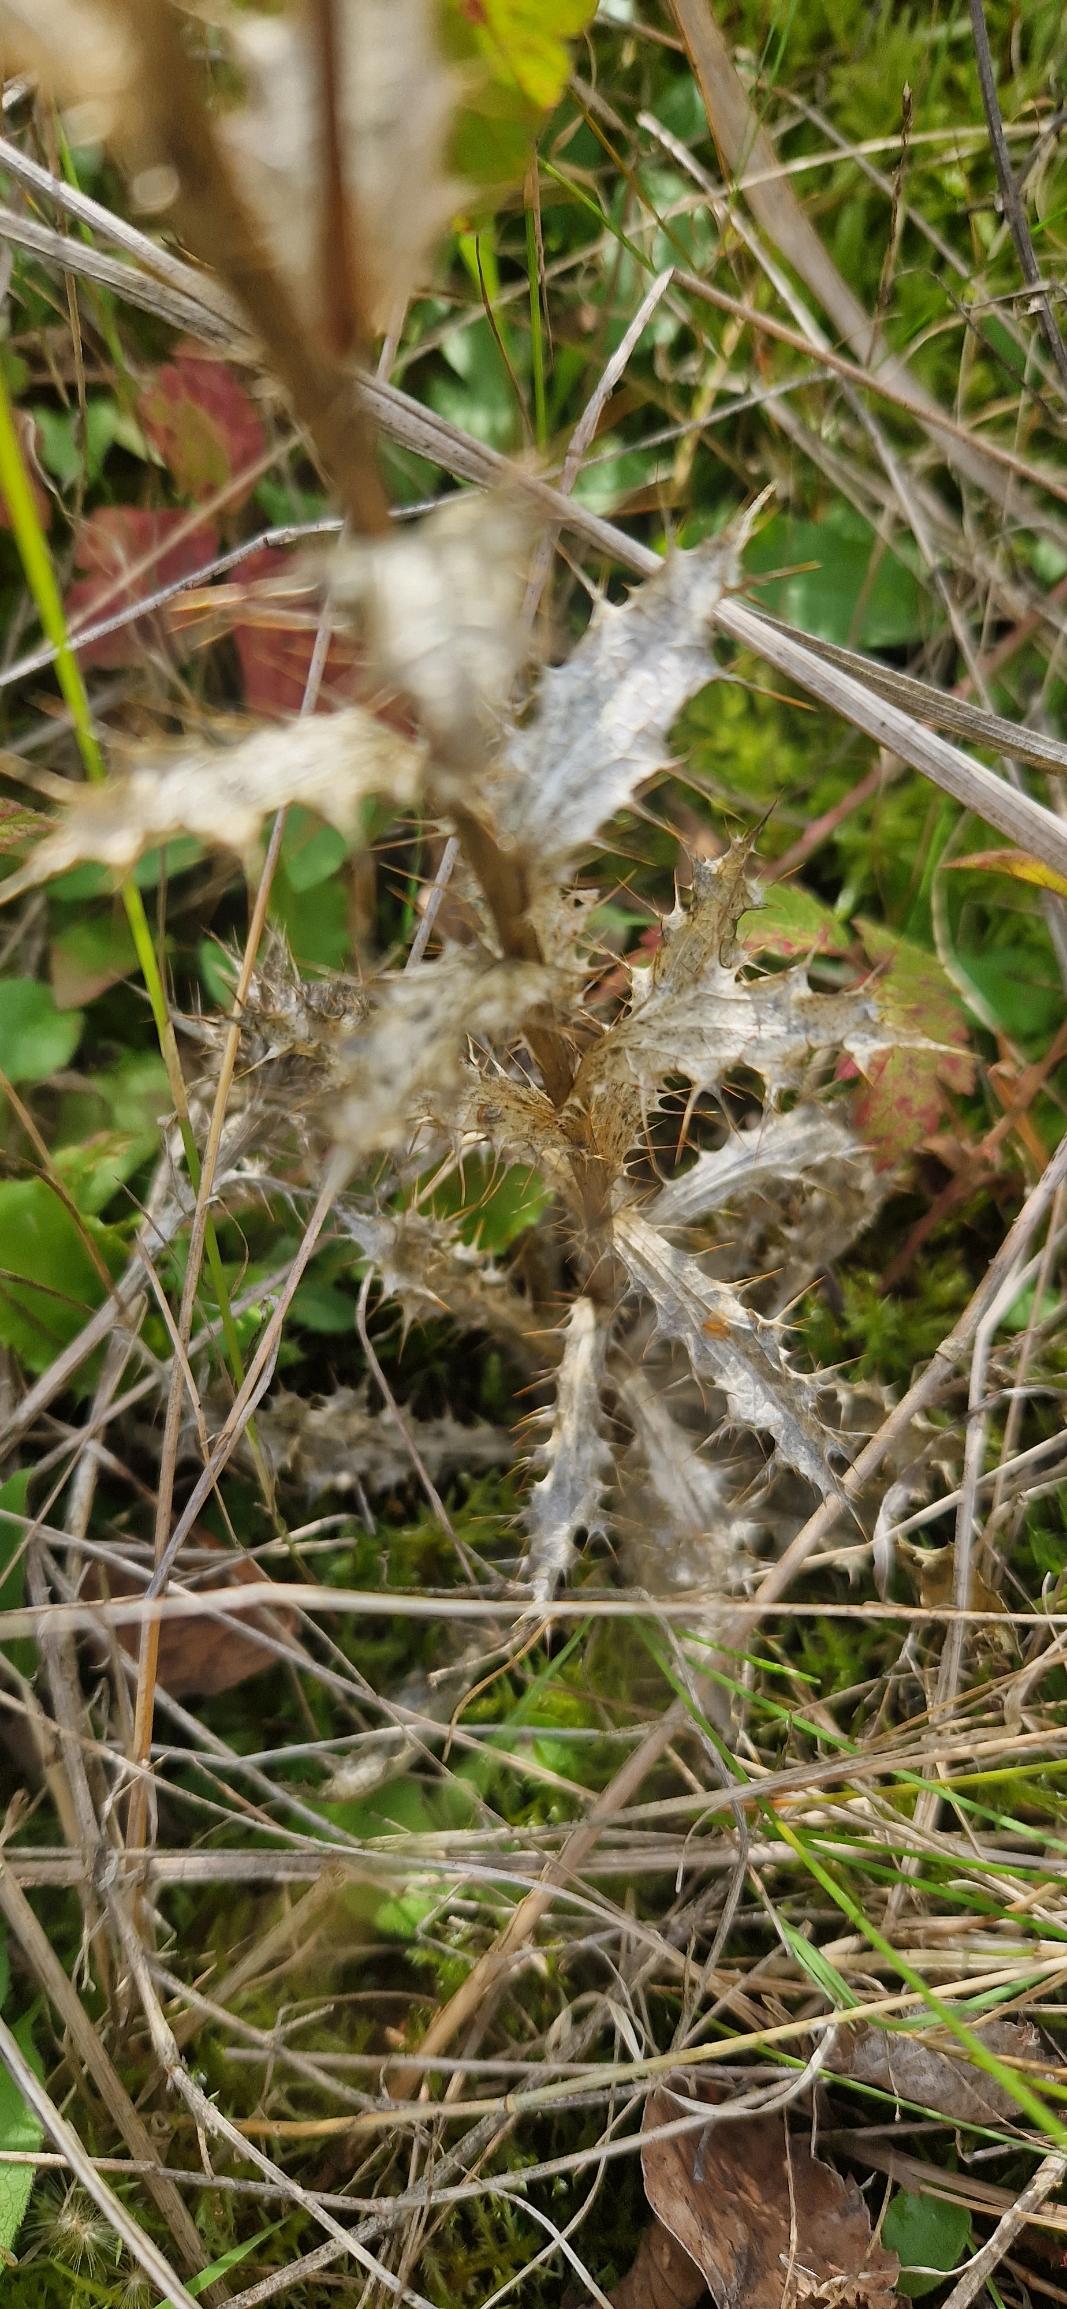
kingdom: Plantae
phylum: Tracheophyta
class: Magnoliopsida
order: Asterales
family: Asteraceae
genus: Carlina
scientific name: Carlina vulgaris
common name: Bakketidsel (underart)
